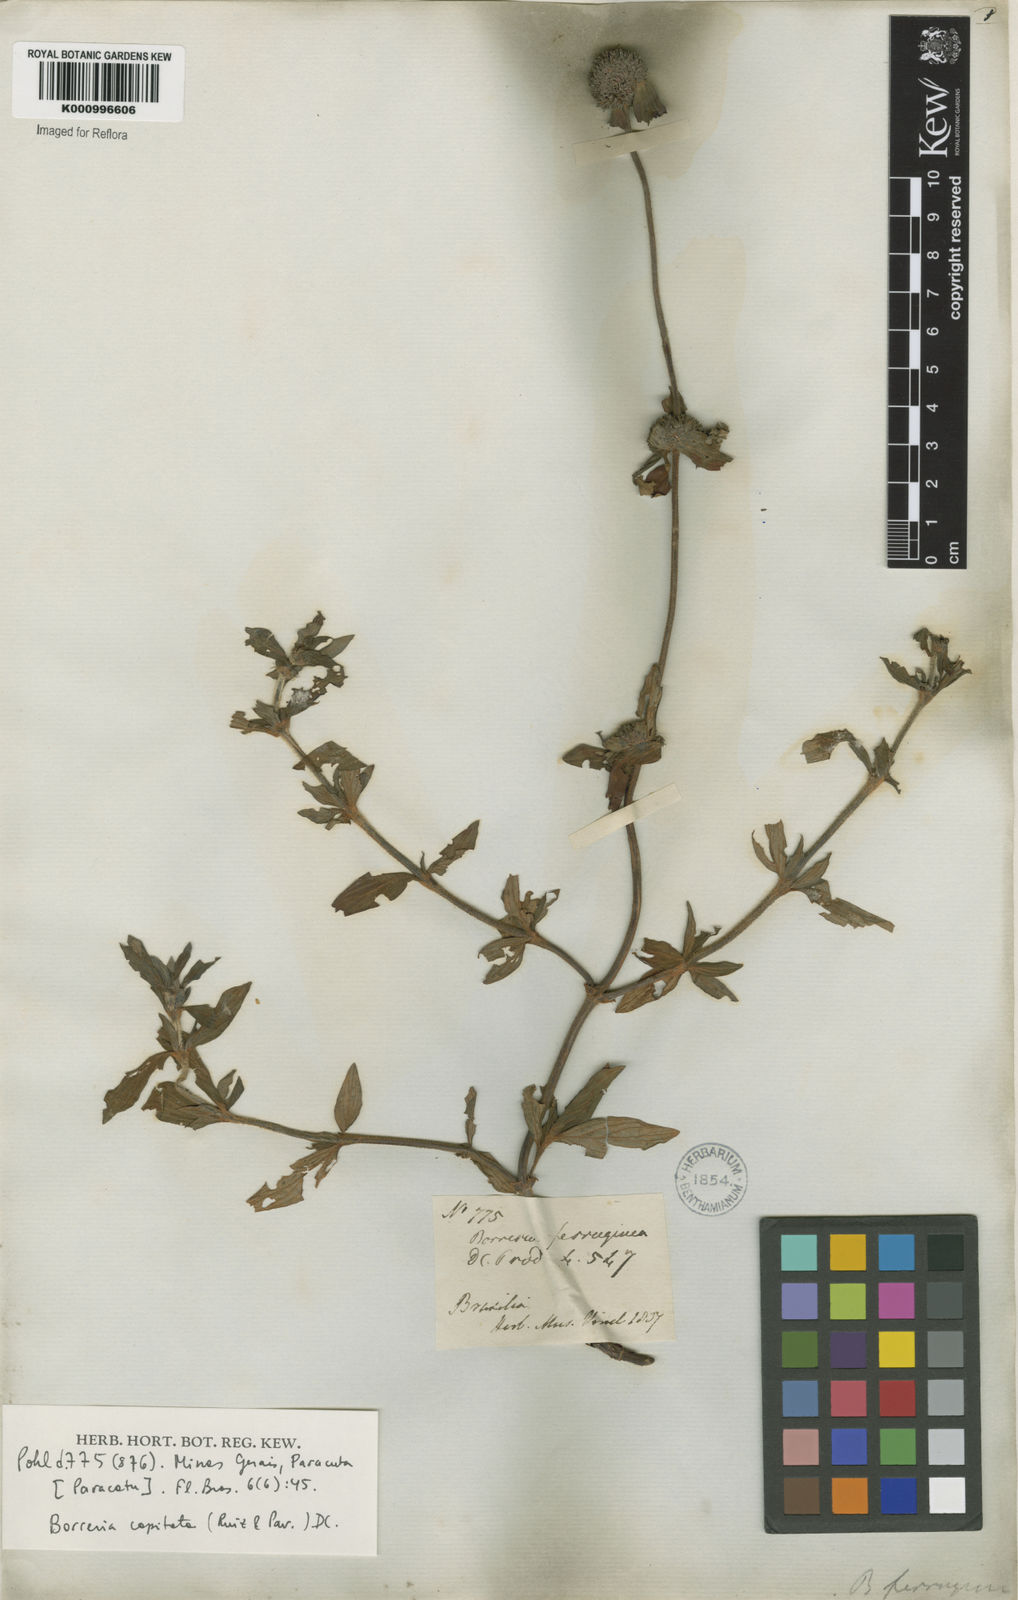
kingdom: Plantae
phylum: Tracheophyta
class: Magnoliopsida
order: Gentianales
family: Rubiaceae
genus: Spermacoce
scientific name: Spermacoce capitata
